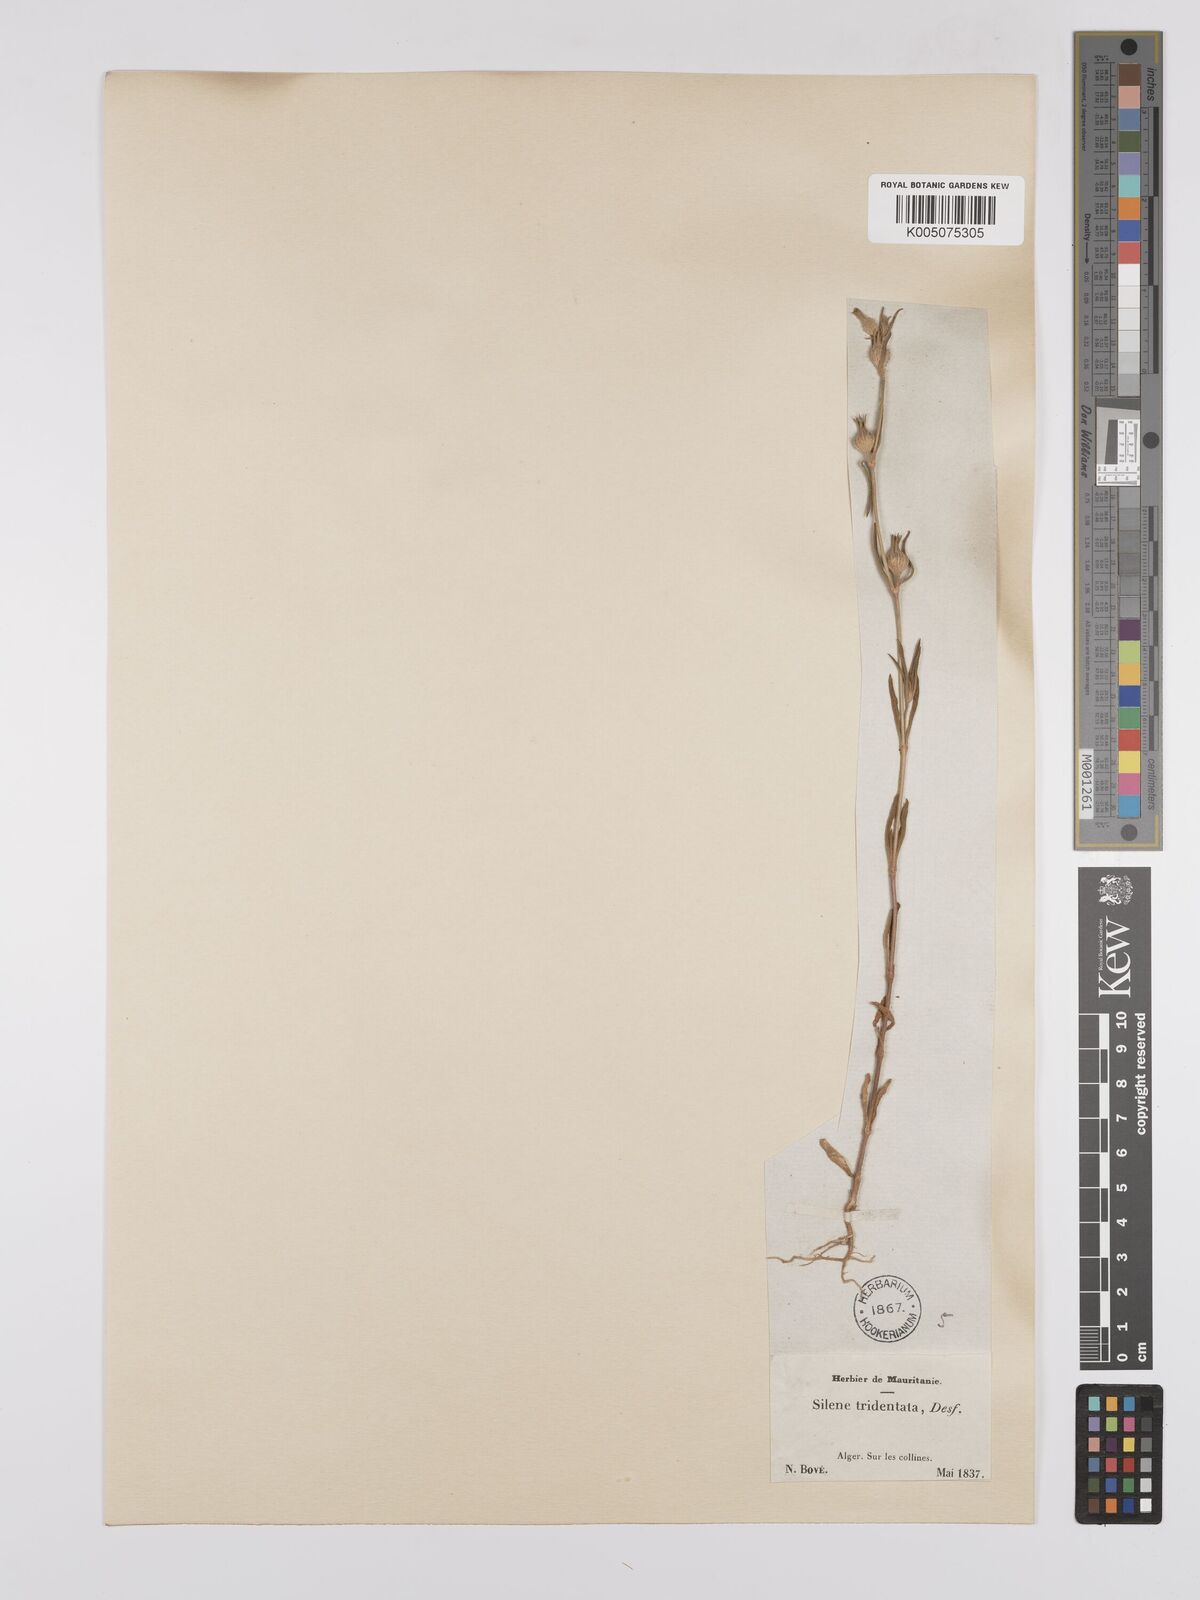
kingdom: Plantae
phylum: Tracheophyta
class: Magnoliopsida
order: Caryophyllales
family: Caryophyllaceae
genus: Silene
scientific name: Silene tridentata
